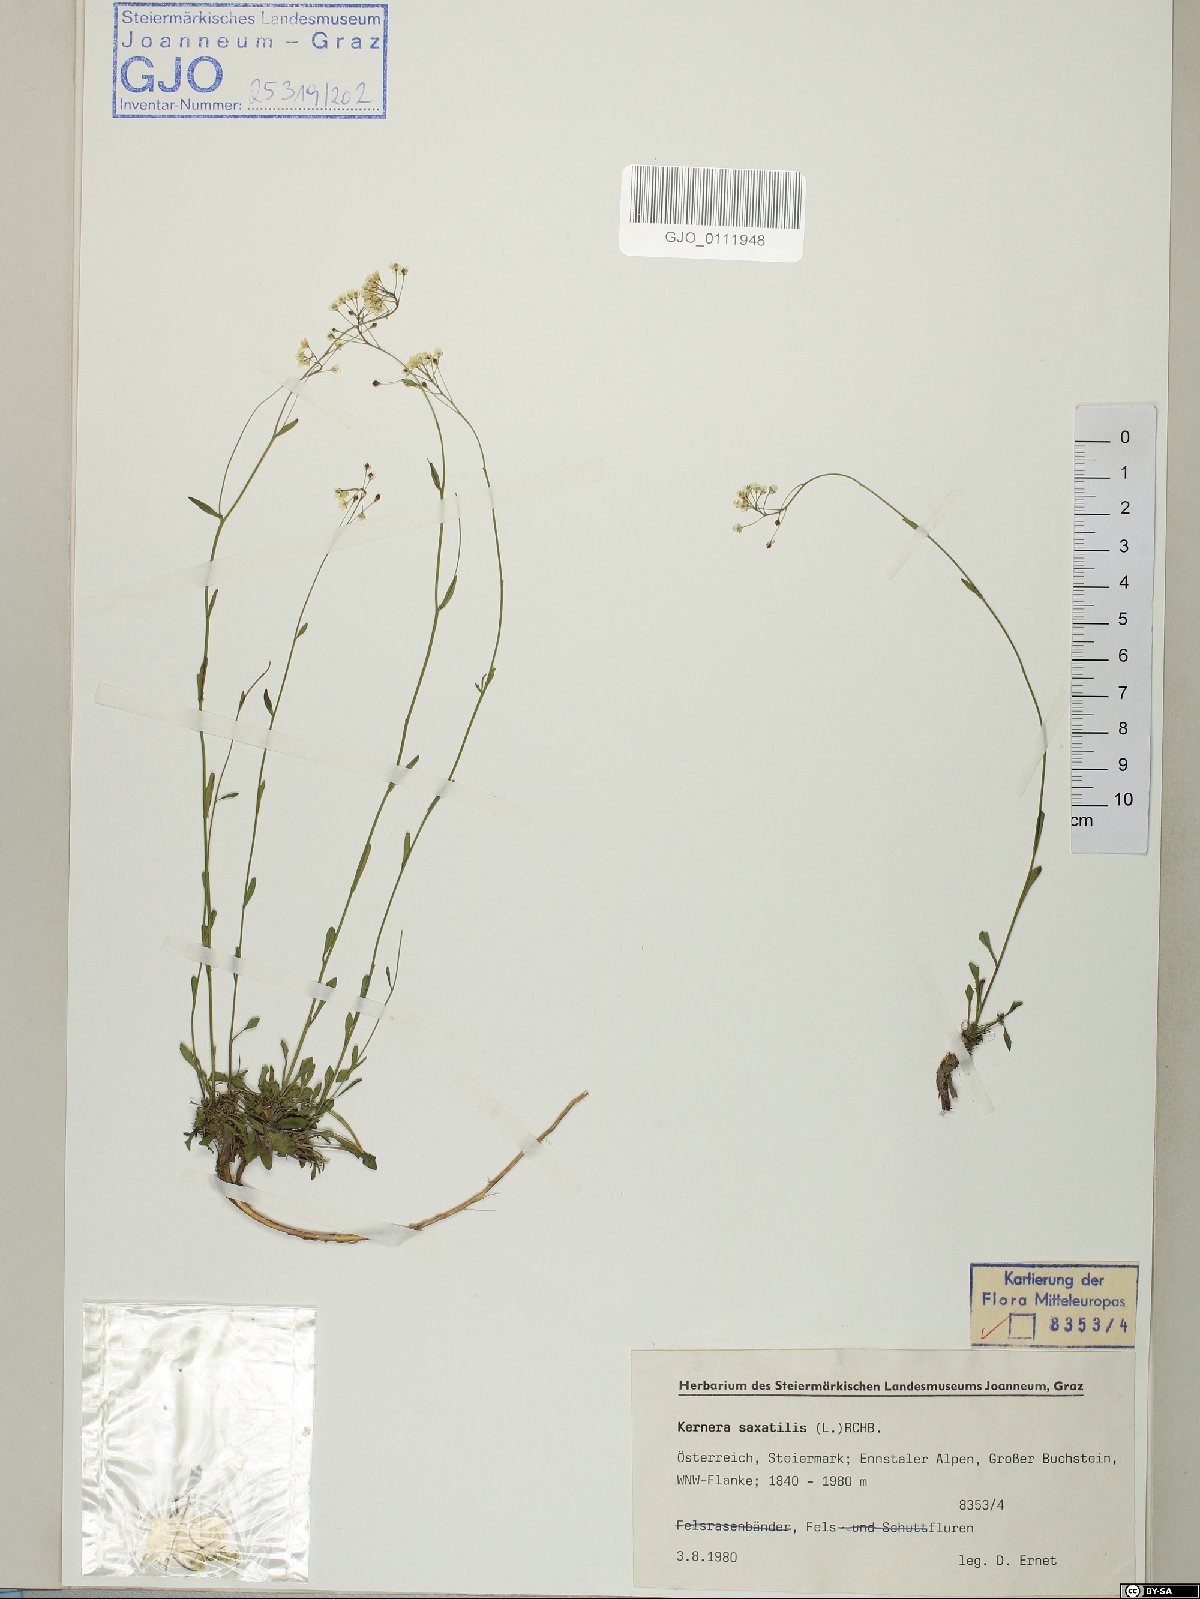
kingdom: Plantae
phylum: Tracheophyta
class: Magnoliopsida
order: Brassicales
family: Brassicaceae
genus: Kernera
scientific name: Kernera saxatilis
